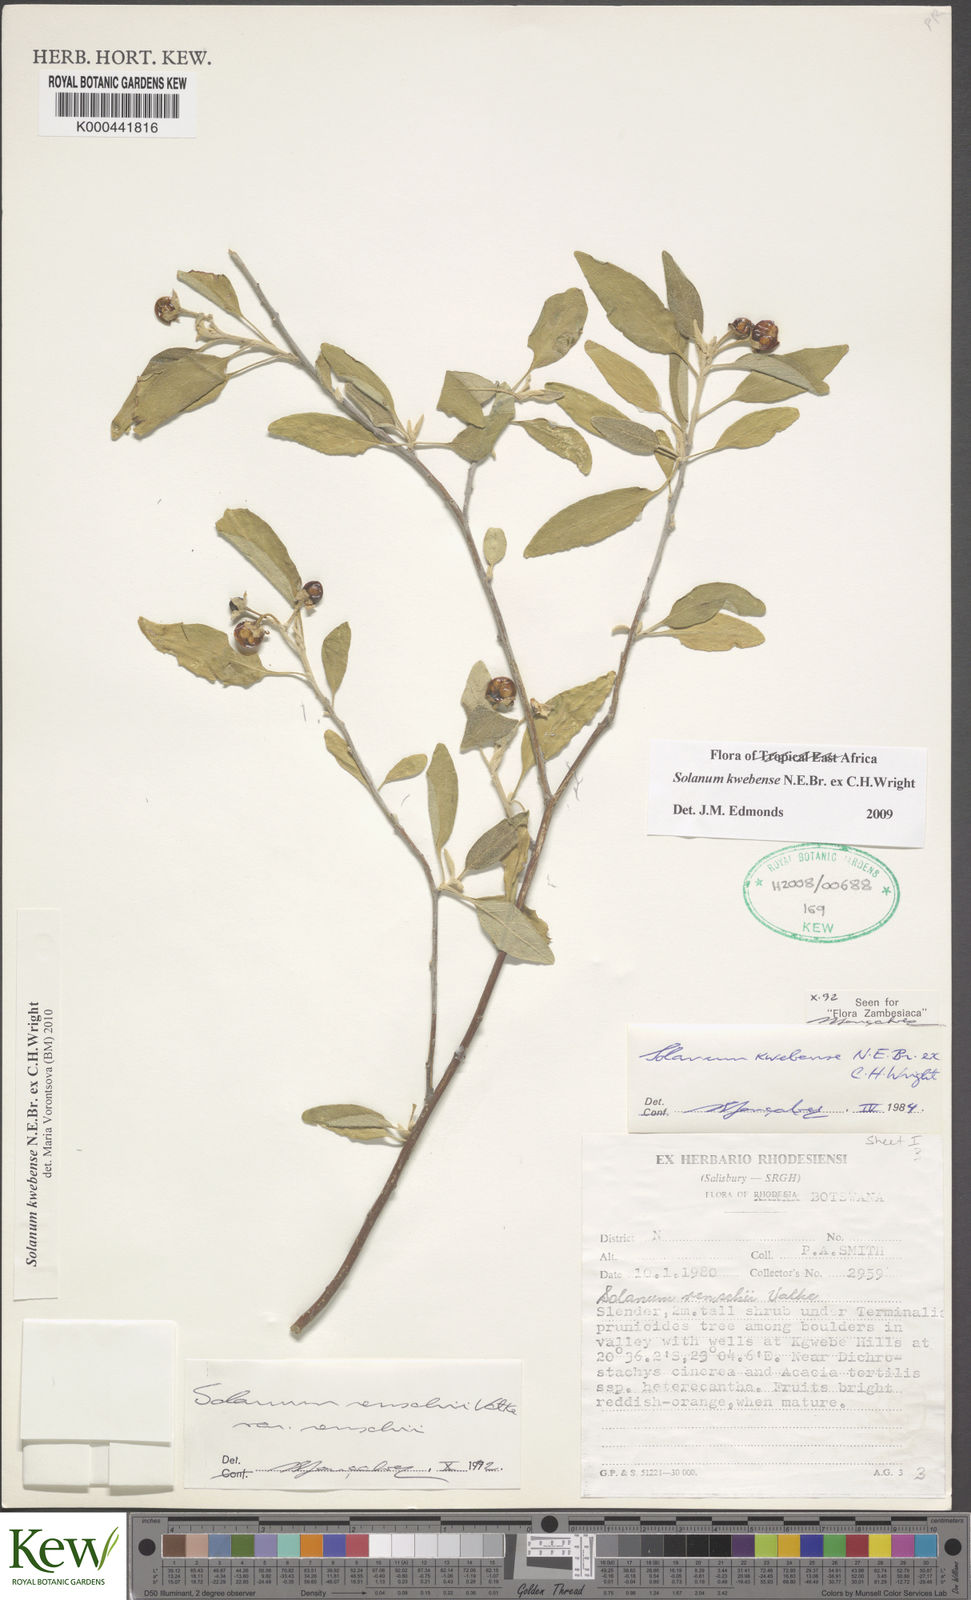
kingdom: Plantae
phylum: Tracheophyta
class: Magnoliopsida
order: Solanales
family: Solanaceae
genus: Solanum
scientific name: Solanum tettense
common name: Mozambique bitter apple
